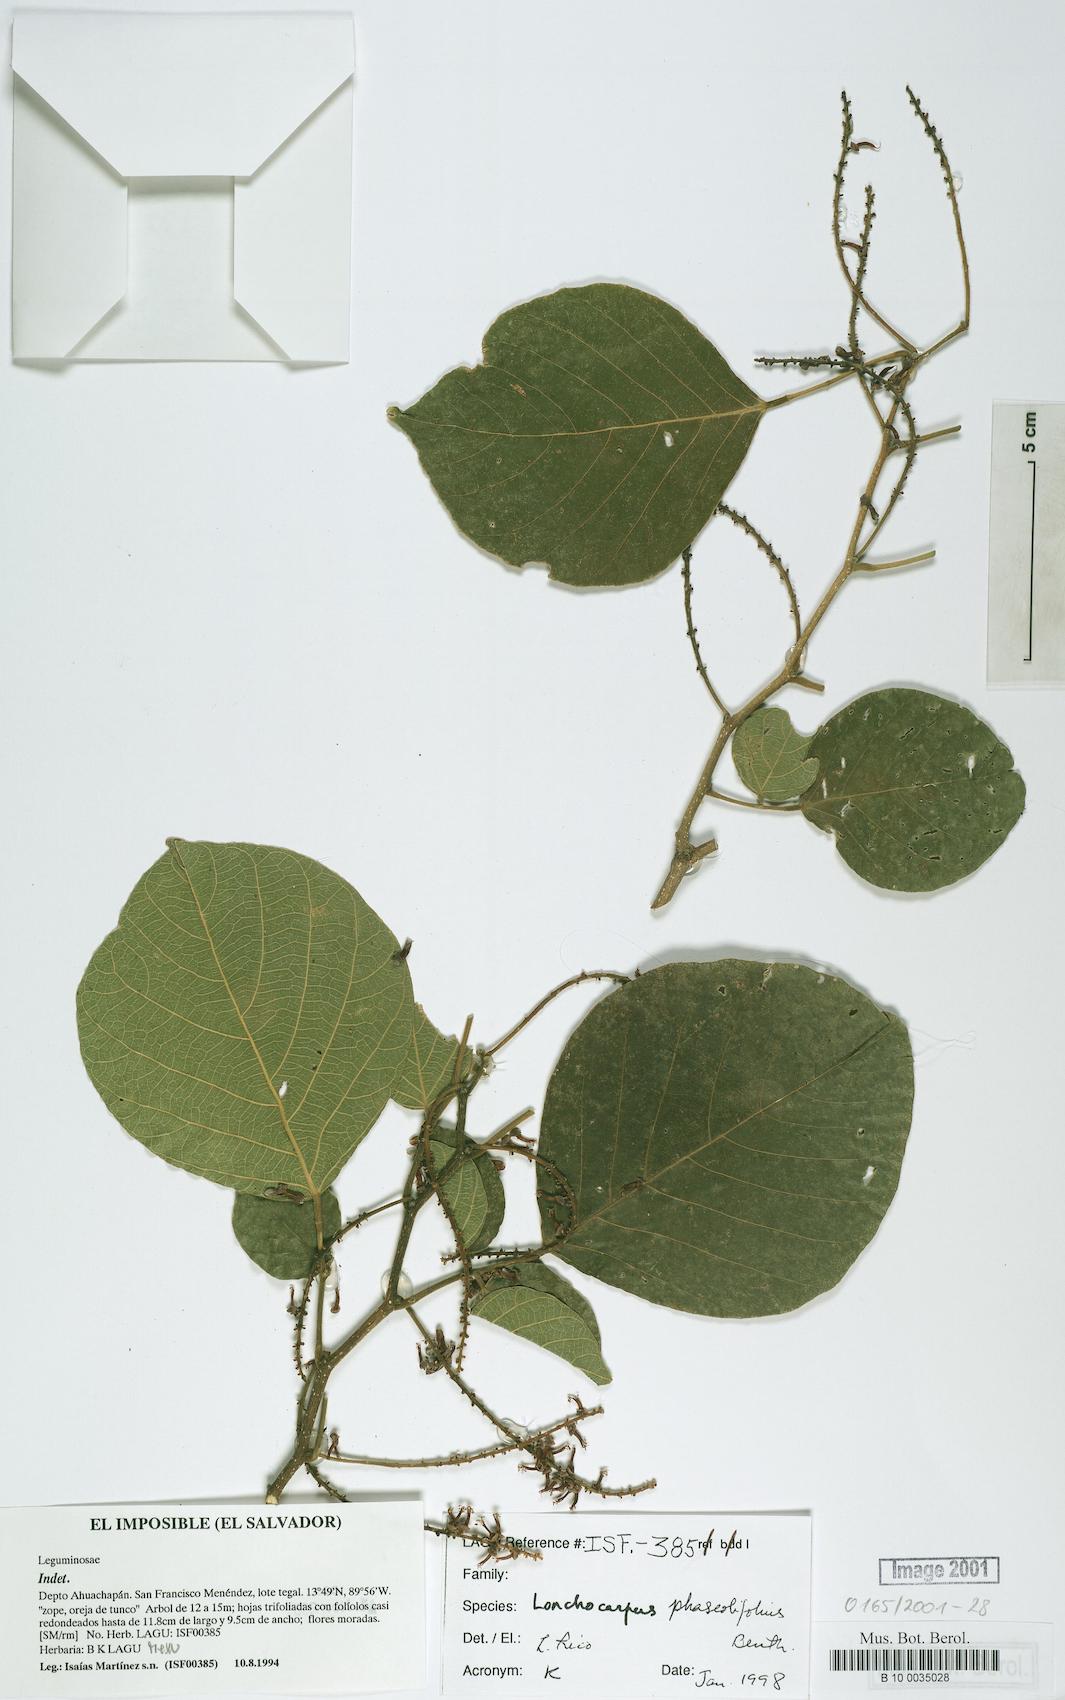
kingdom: Plantae
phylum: Tracheophyta
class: Magnoliopsida
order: Fabales
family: Fabaceae
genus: Lonchocarpus
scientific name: Lonchocarpus phaseolifolius
